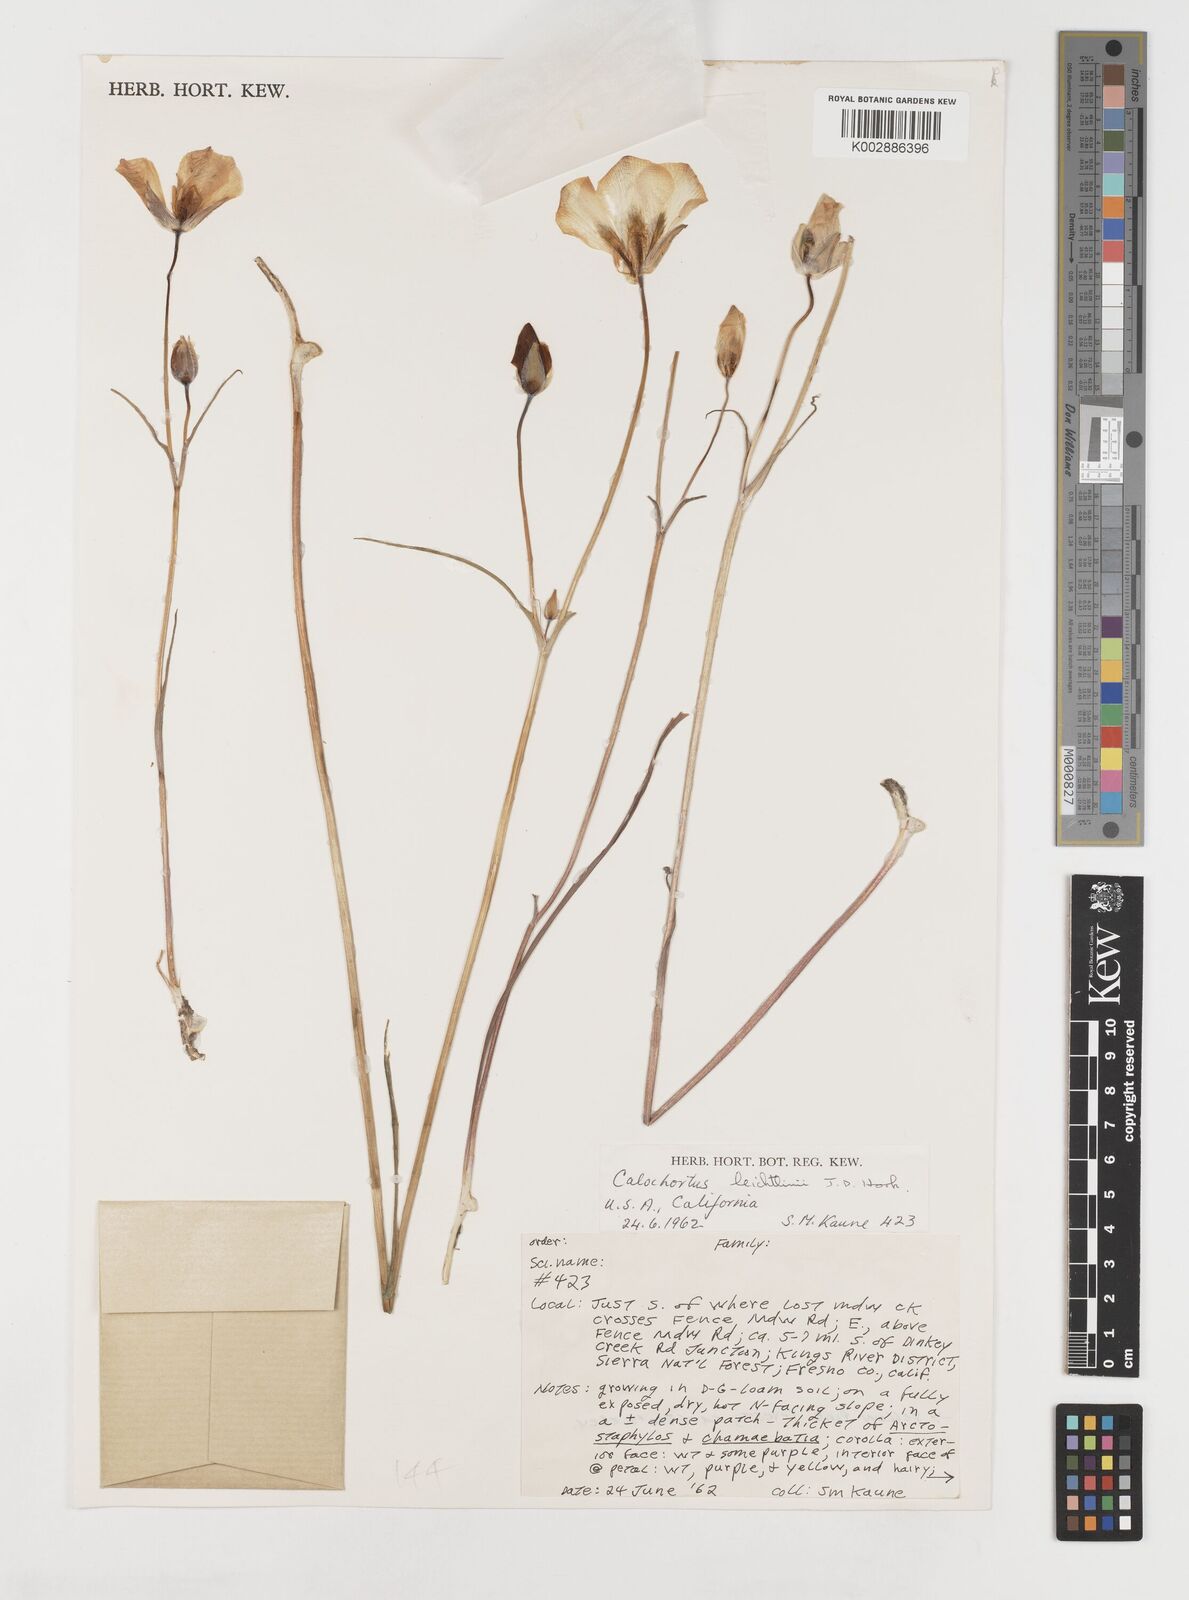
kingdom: Plantae
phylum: Tracheophyta
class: Liliopsida
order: Liliales
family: Liliaceae
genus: Calochortus
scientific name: Calochortus leichtlinii
